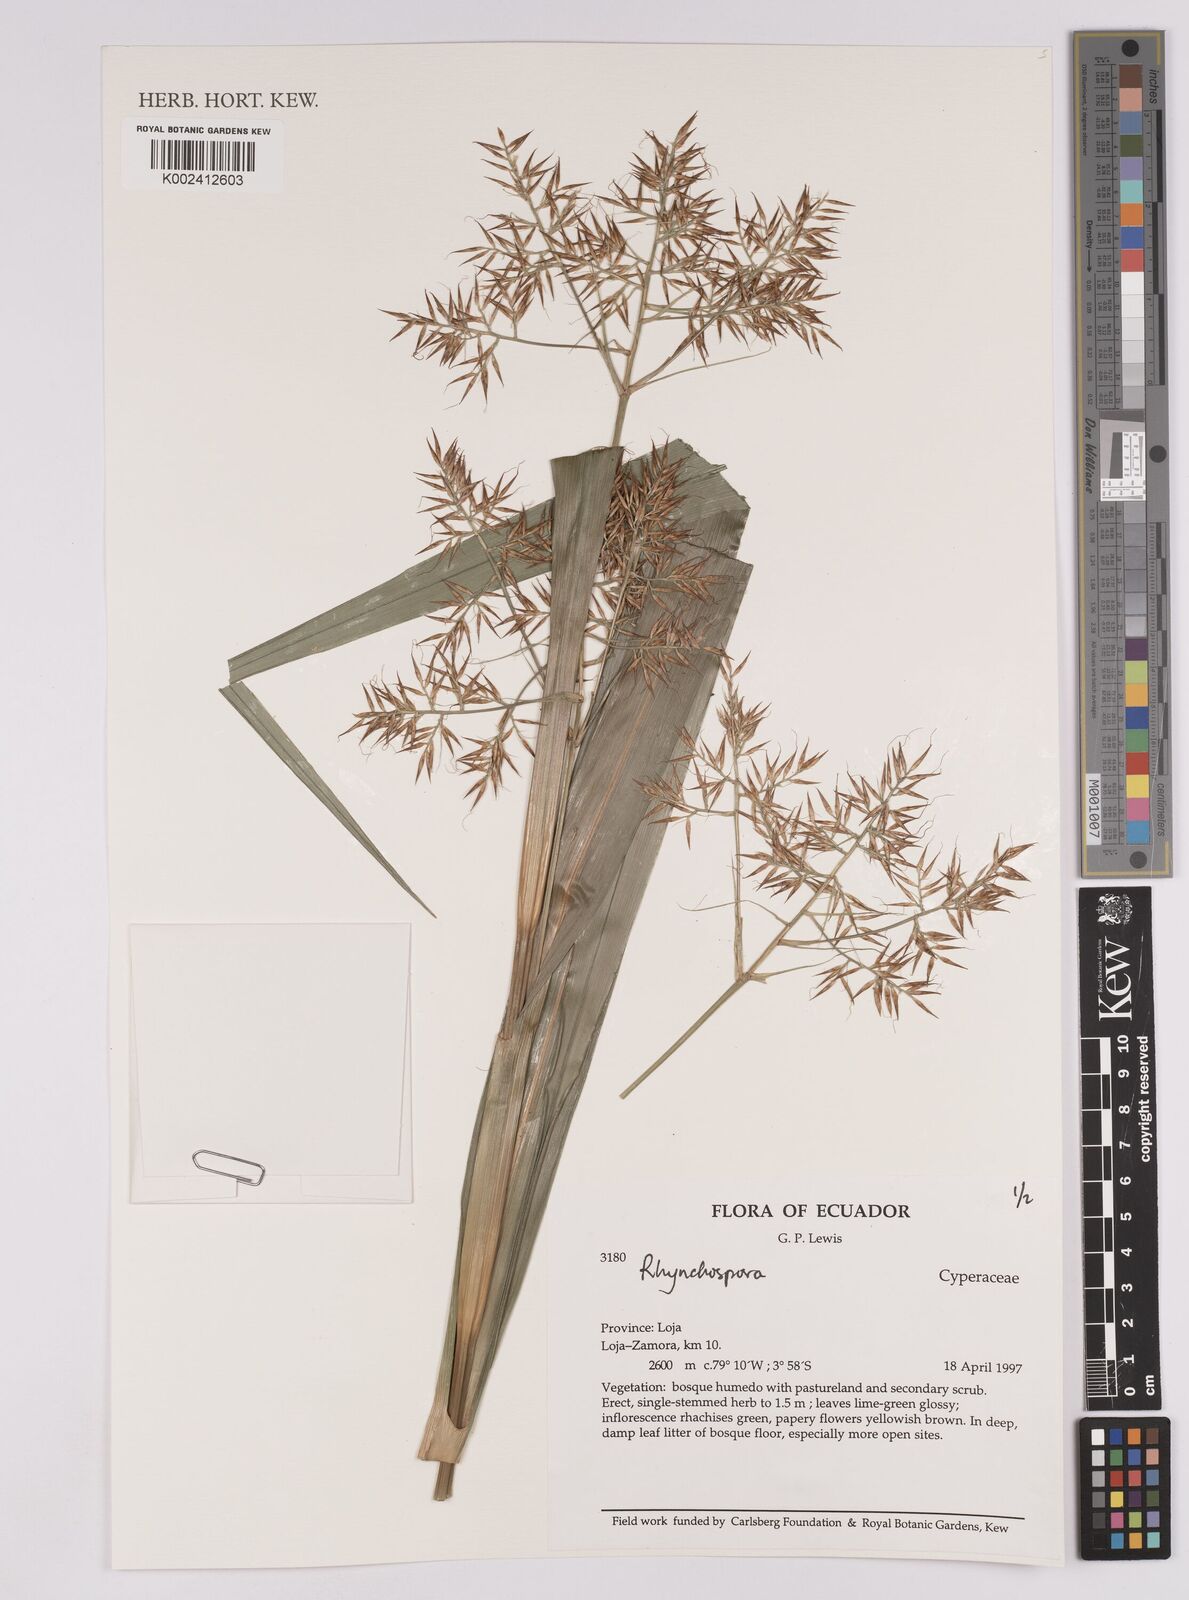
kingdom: Plantae
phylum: Tracheophyta
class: Liliopsida
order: Poales
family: Cyperaceae
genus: Rhynchospora
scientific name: Rhynchospora
